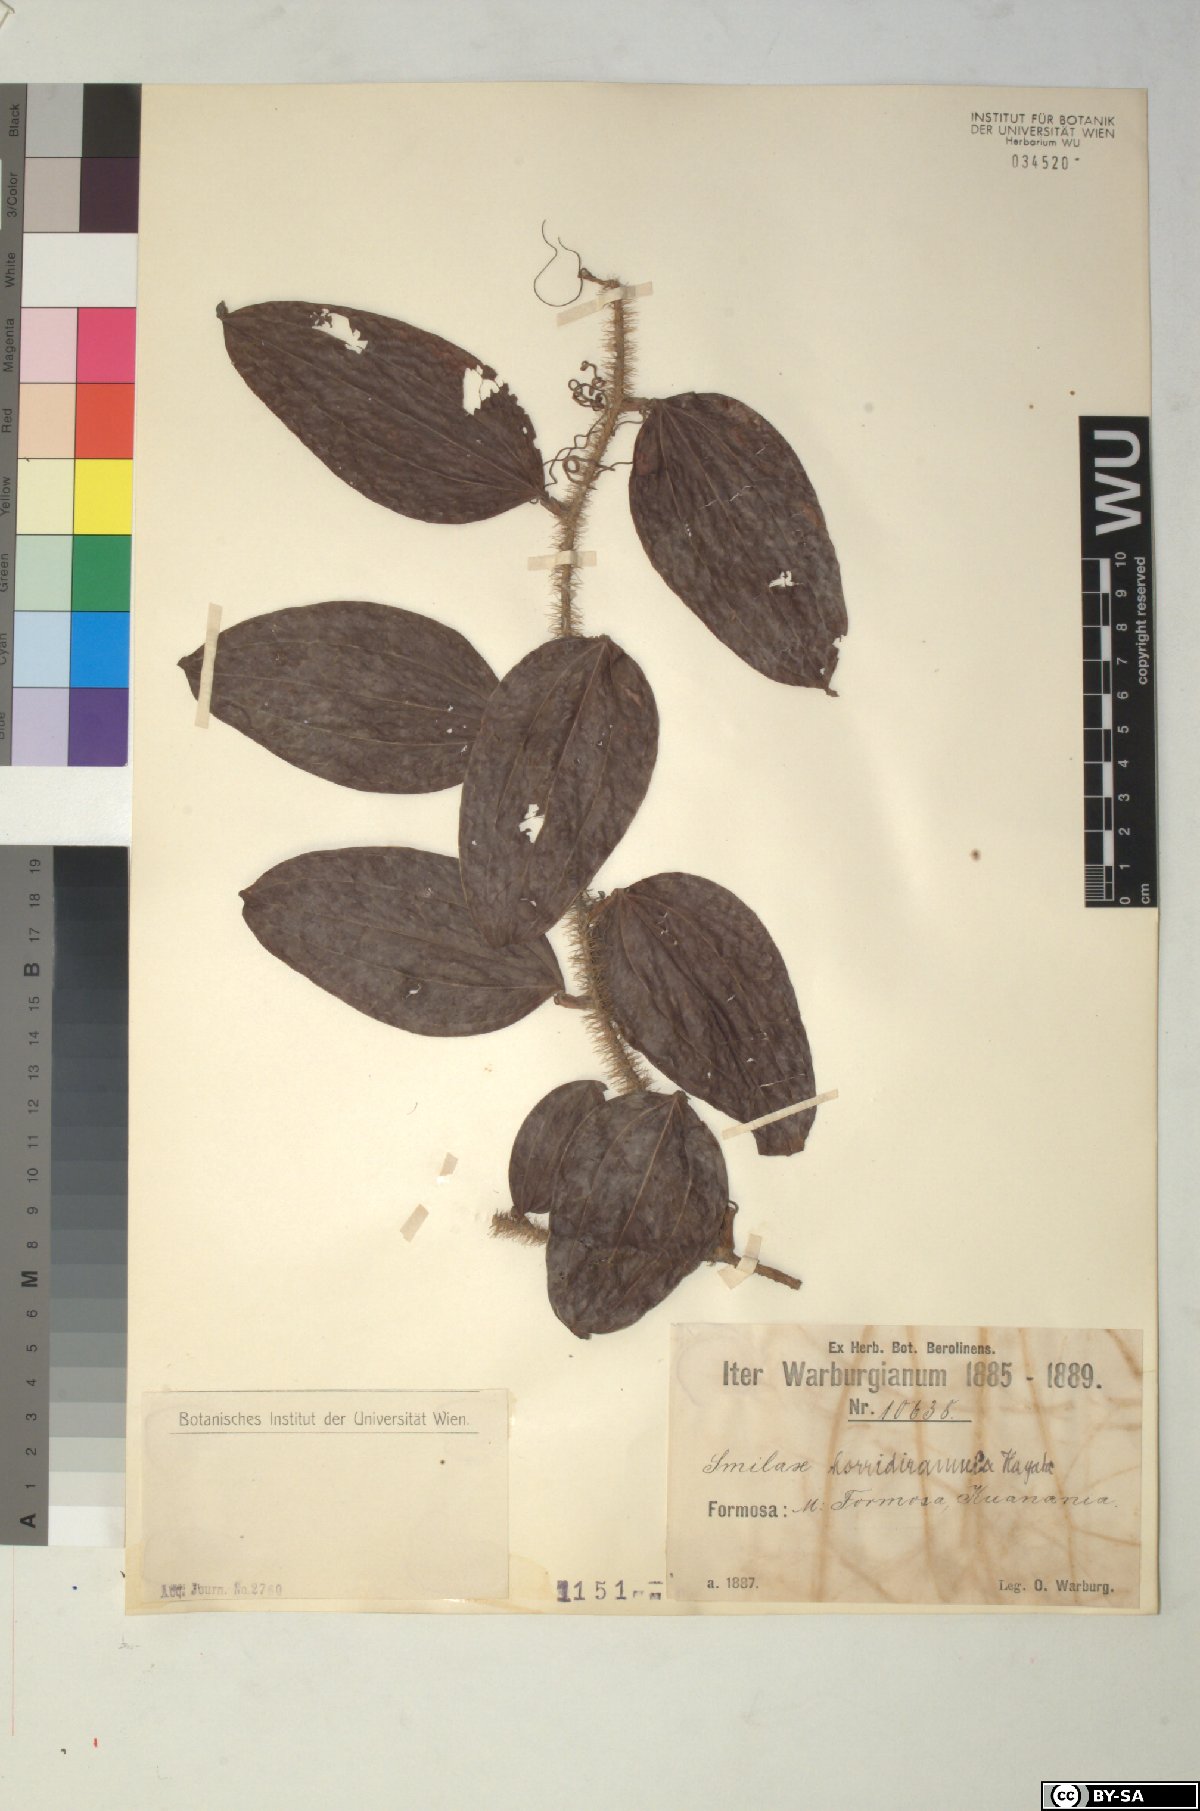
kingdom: Plantae
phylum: Tracheophyta
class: Liliopsida
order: Liliales
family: Smilacaceae
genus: Smilax
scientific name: Smilax horridiramula
